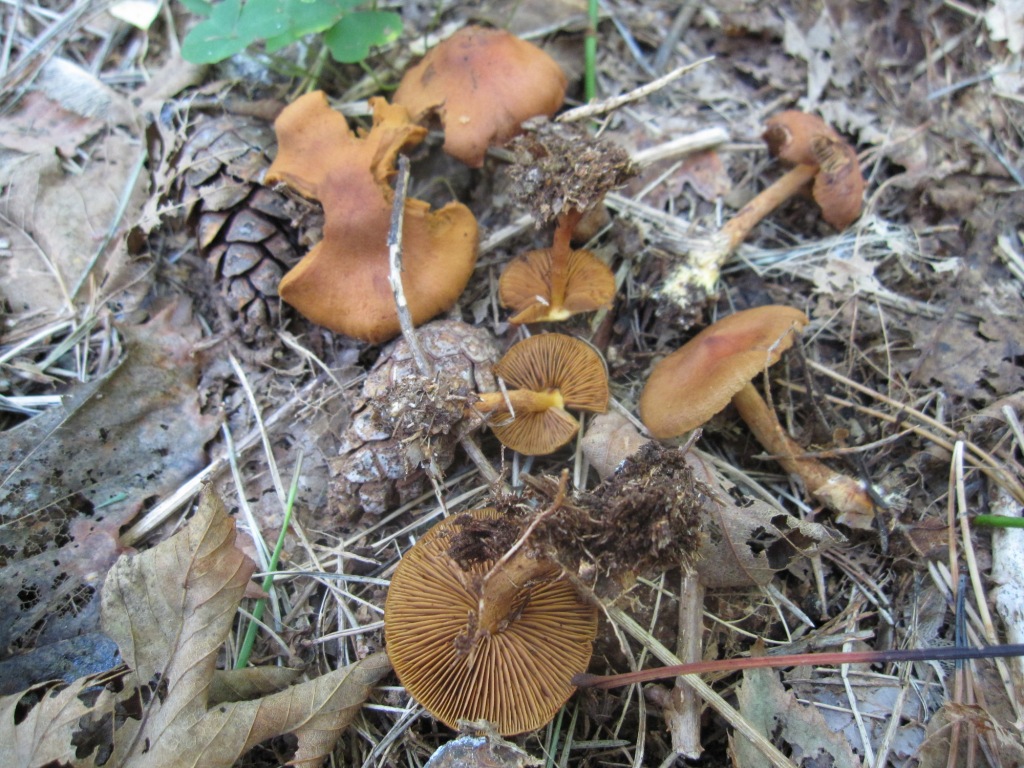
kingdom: Fungi
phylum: Basidiomycota
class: Agaricomycetes
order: Agaricales
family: Cortinariaceae
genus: Cortinarius
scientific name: Cortinarius cinnamomeus
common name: kanel-slørhat
